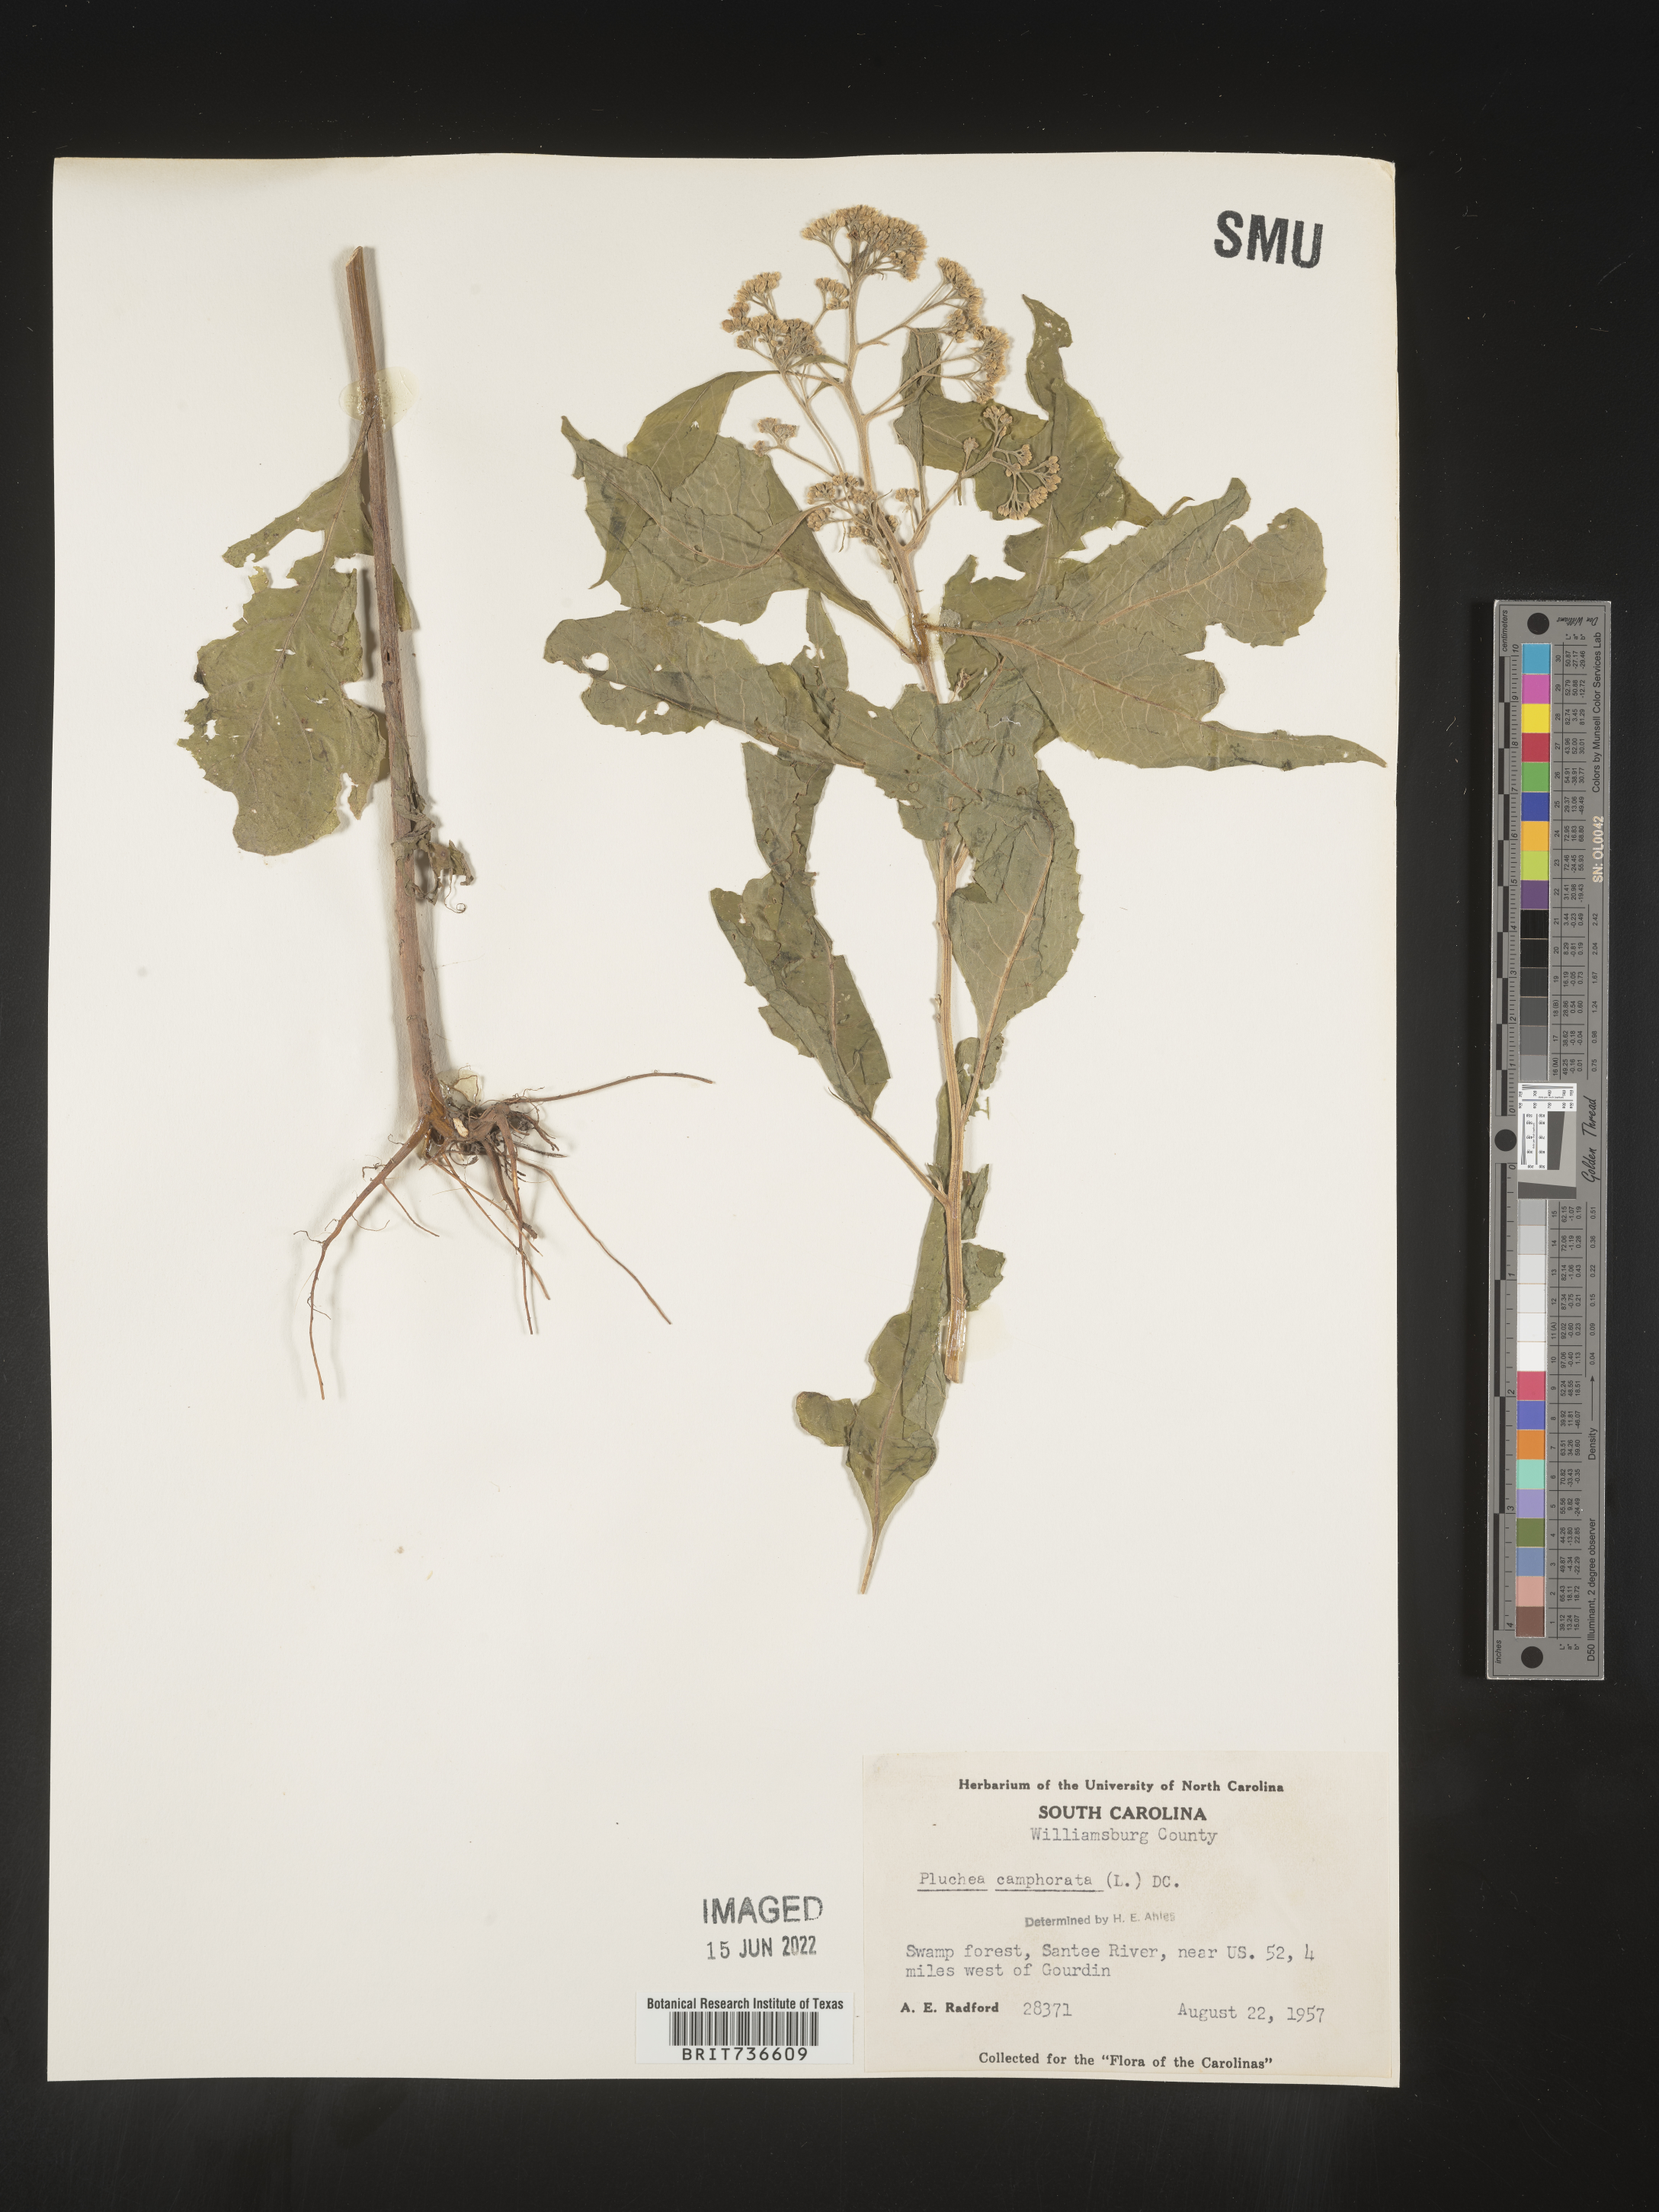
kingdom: Plantae
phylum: Tracheophyta
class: Magnoliopsida
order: Asterales
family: Asteraceae
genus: Pluchea
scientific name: Pluchea camphorata
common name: Camphor pluchea
